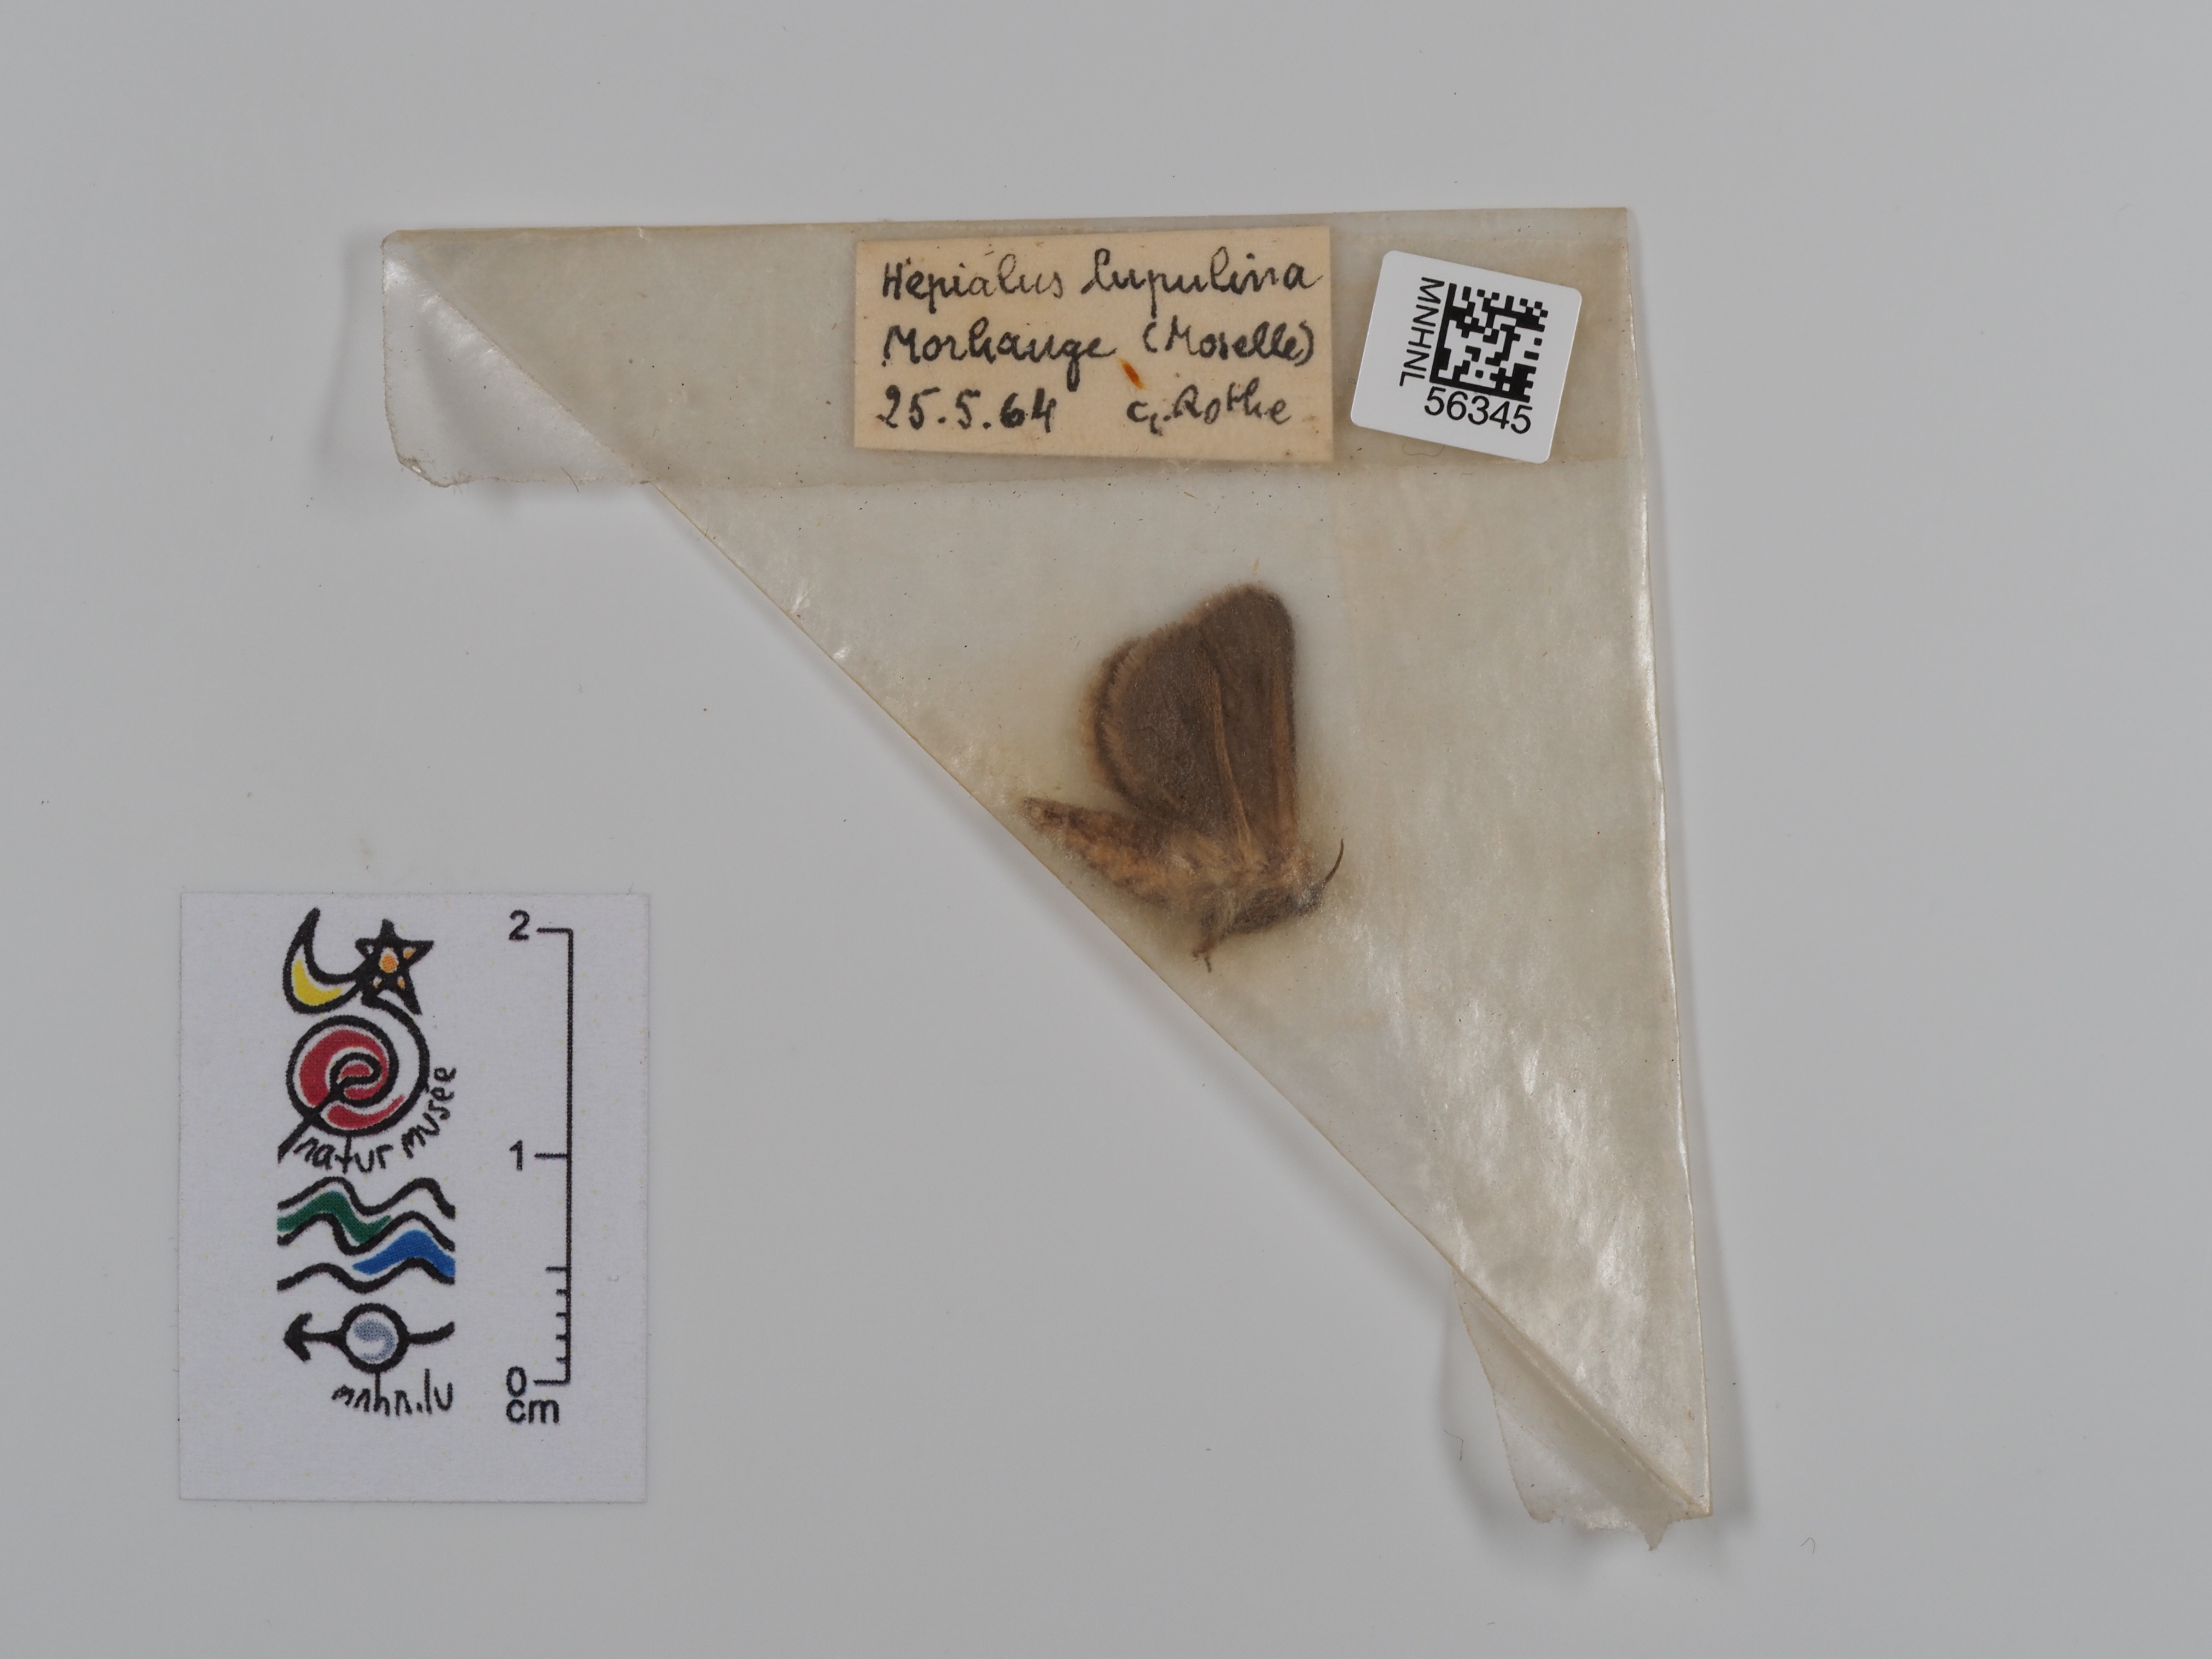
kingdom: Animalia
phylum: Arthropoda
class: Insecta
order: Lepidoptera
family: Hepialidae
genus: Korscheltellus
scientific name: Korscheltellus lupulina
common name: Common swift
